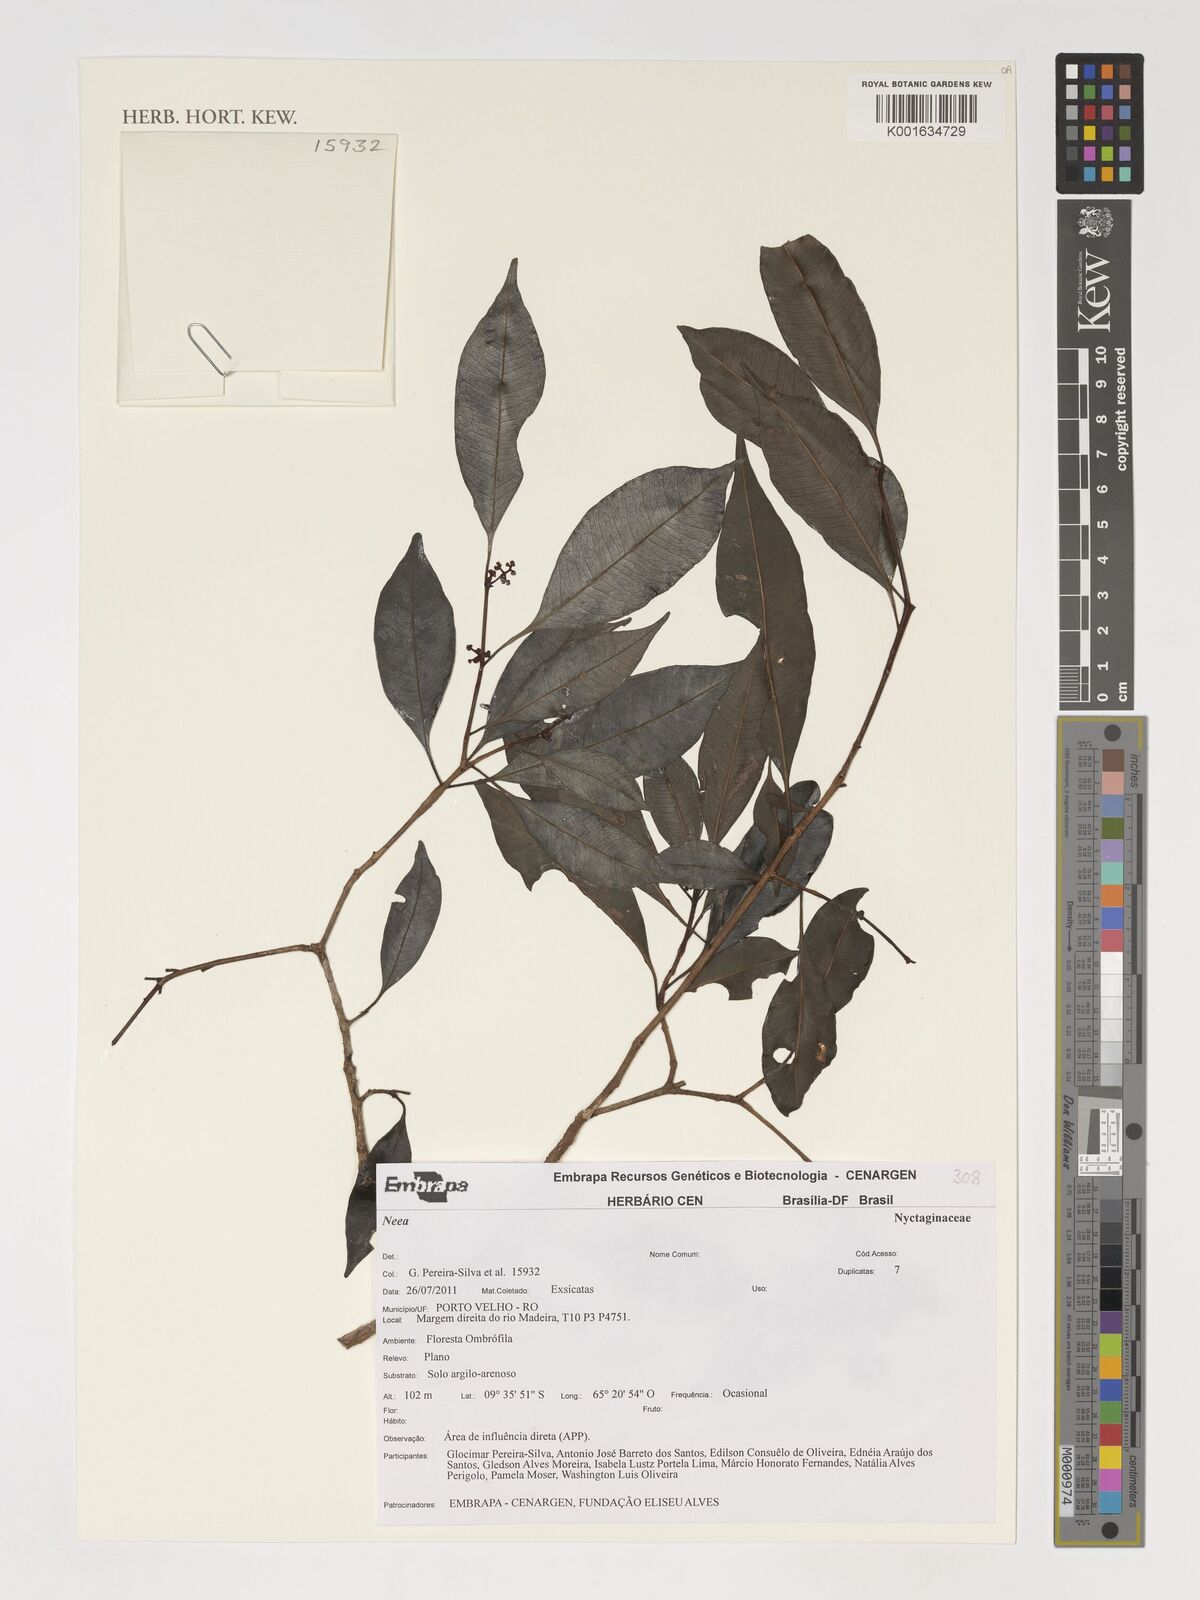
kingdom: Plantae
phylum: Tracheophyta
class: Magnoliopsida
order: Caryophyllales
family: Nyctaginaceae
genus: Neea
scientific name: Neea
